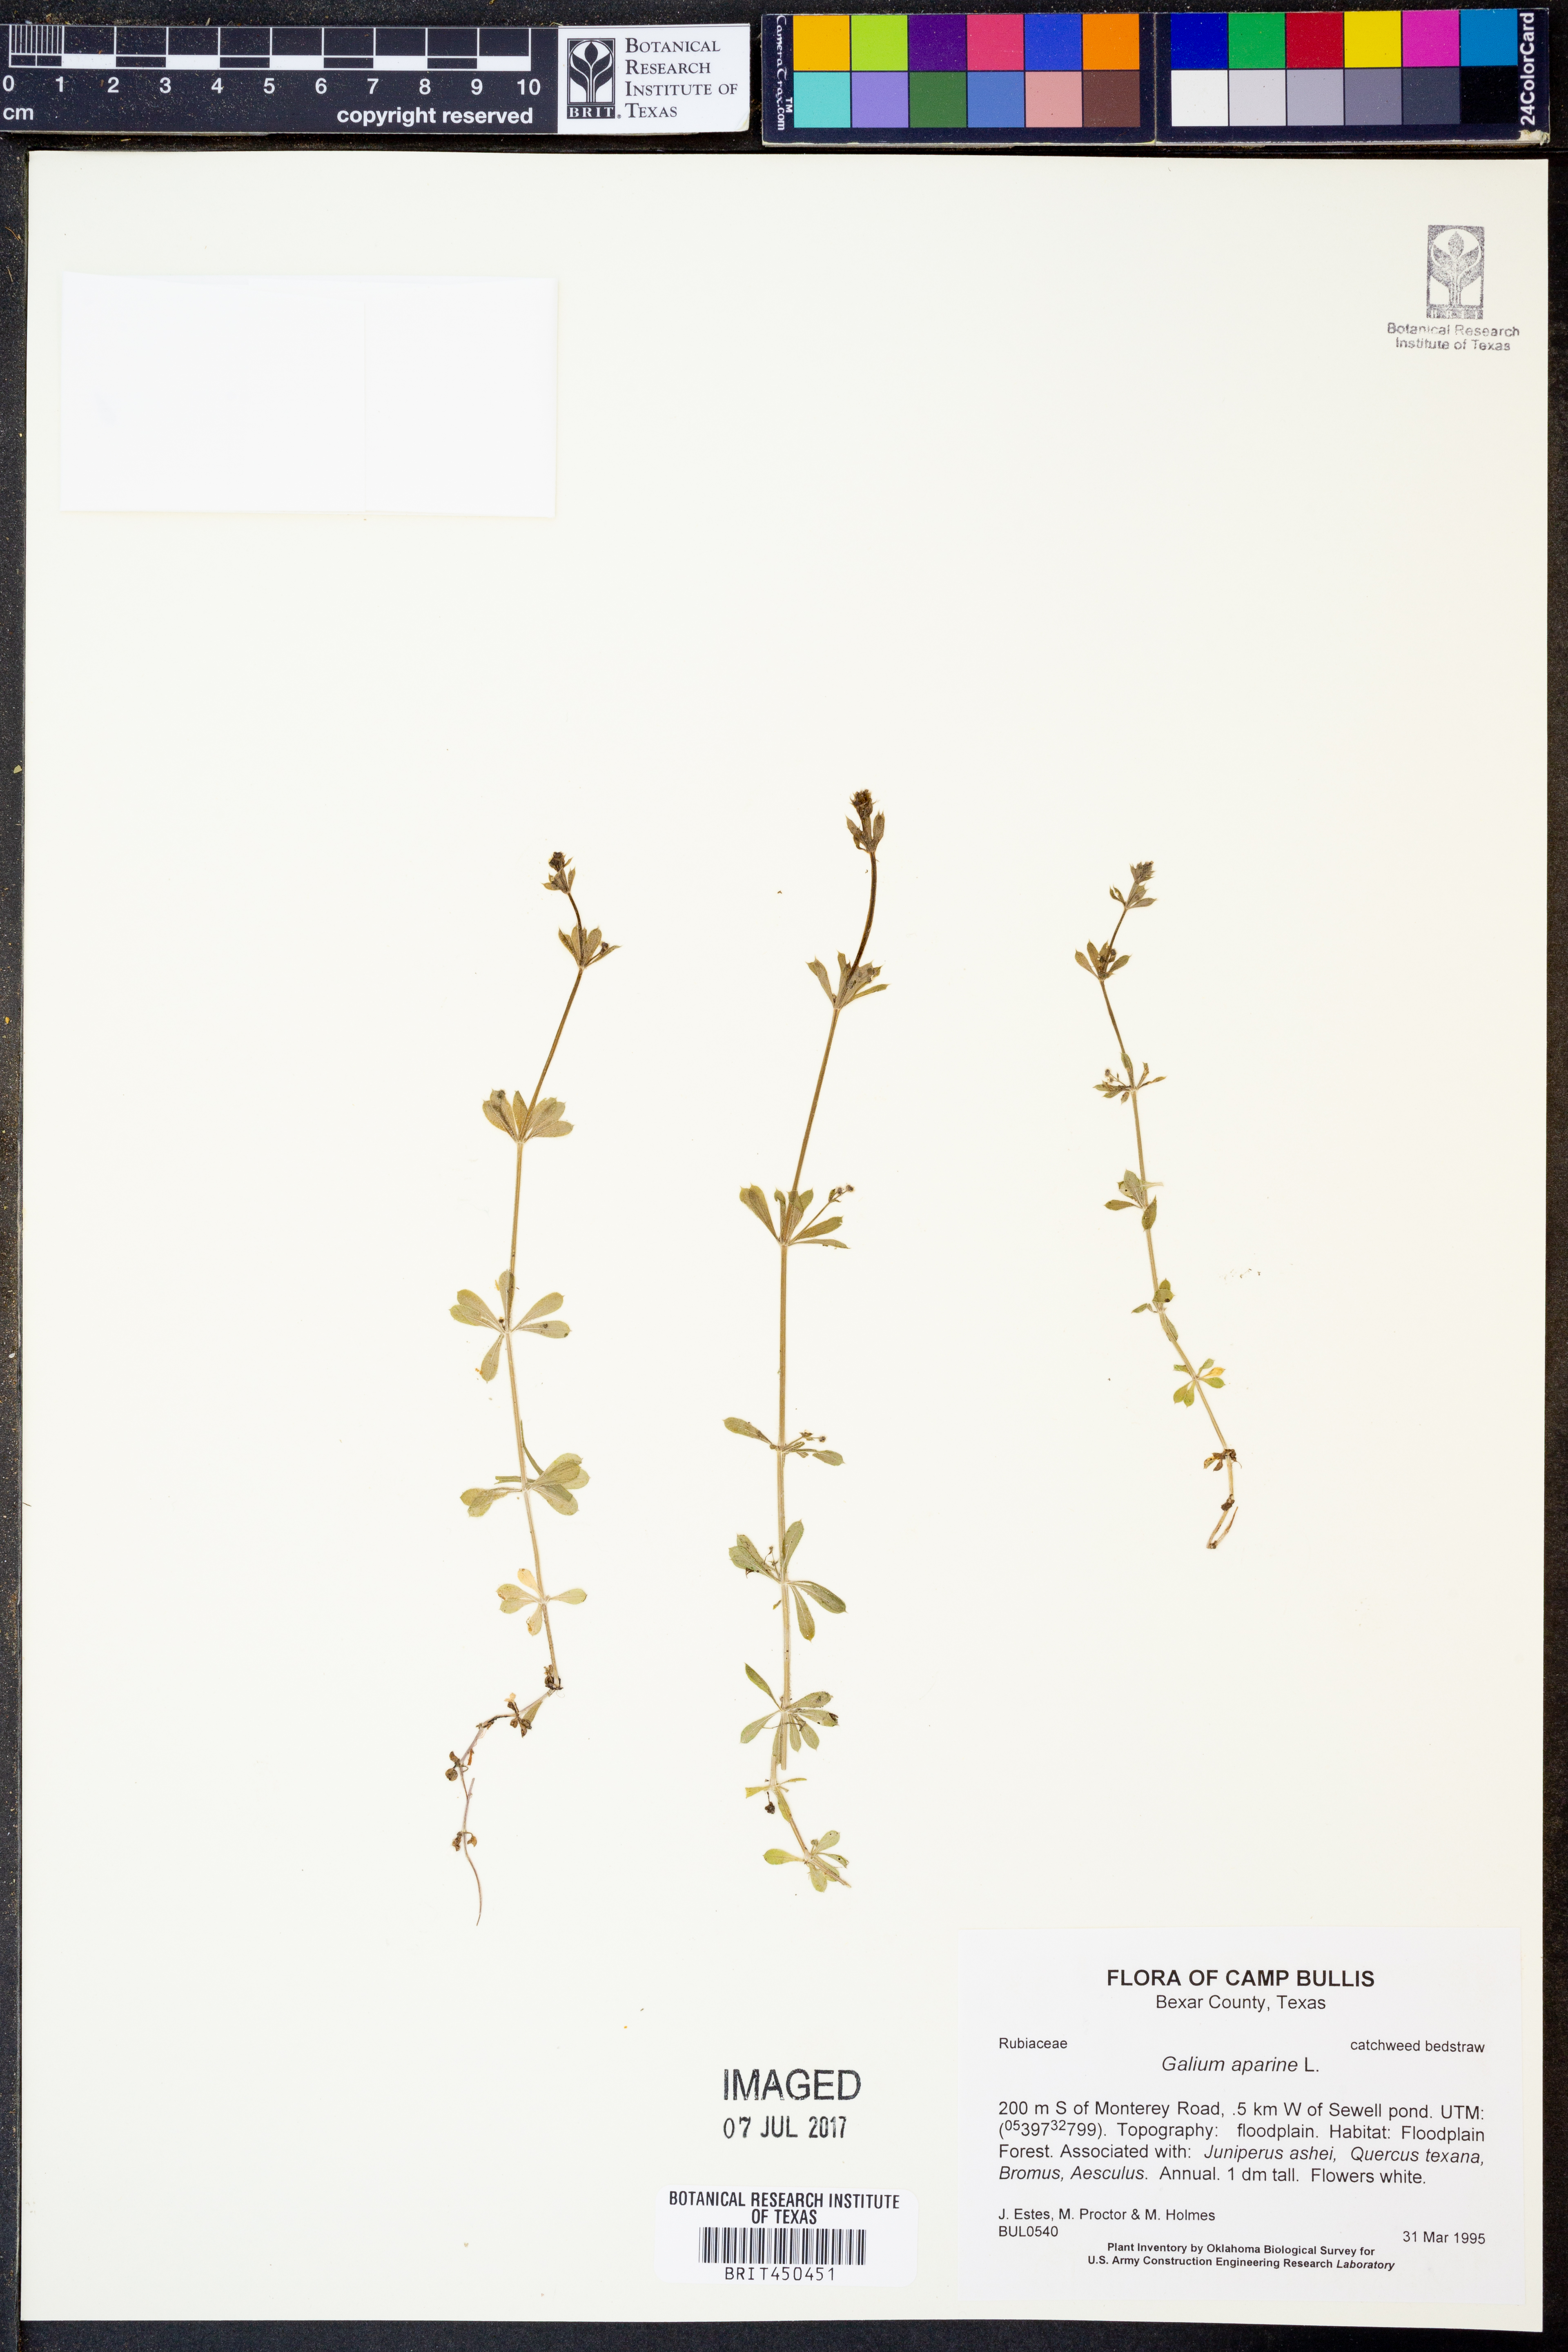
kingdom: Plantae
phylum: Tracheophyta
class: Magnoliopsida
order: Gentianales
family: Rubiaceae
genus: Galium
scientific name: Galium aparine
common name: Cleavers
